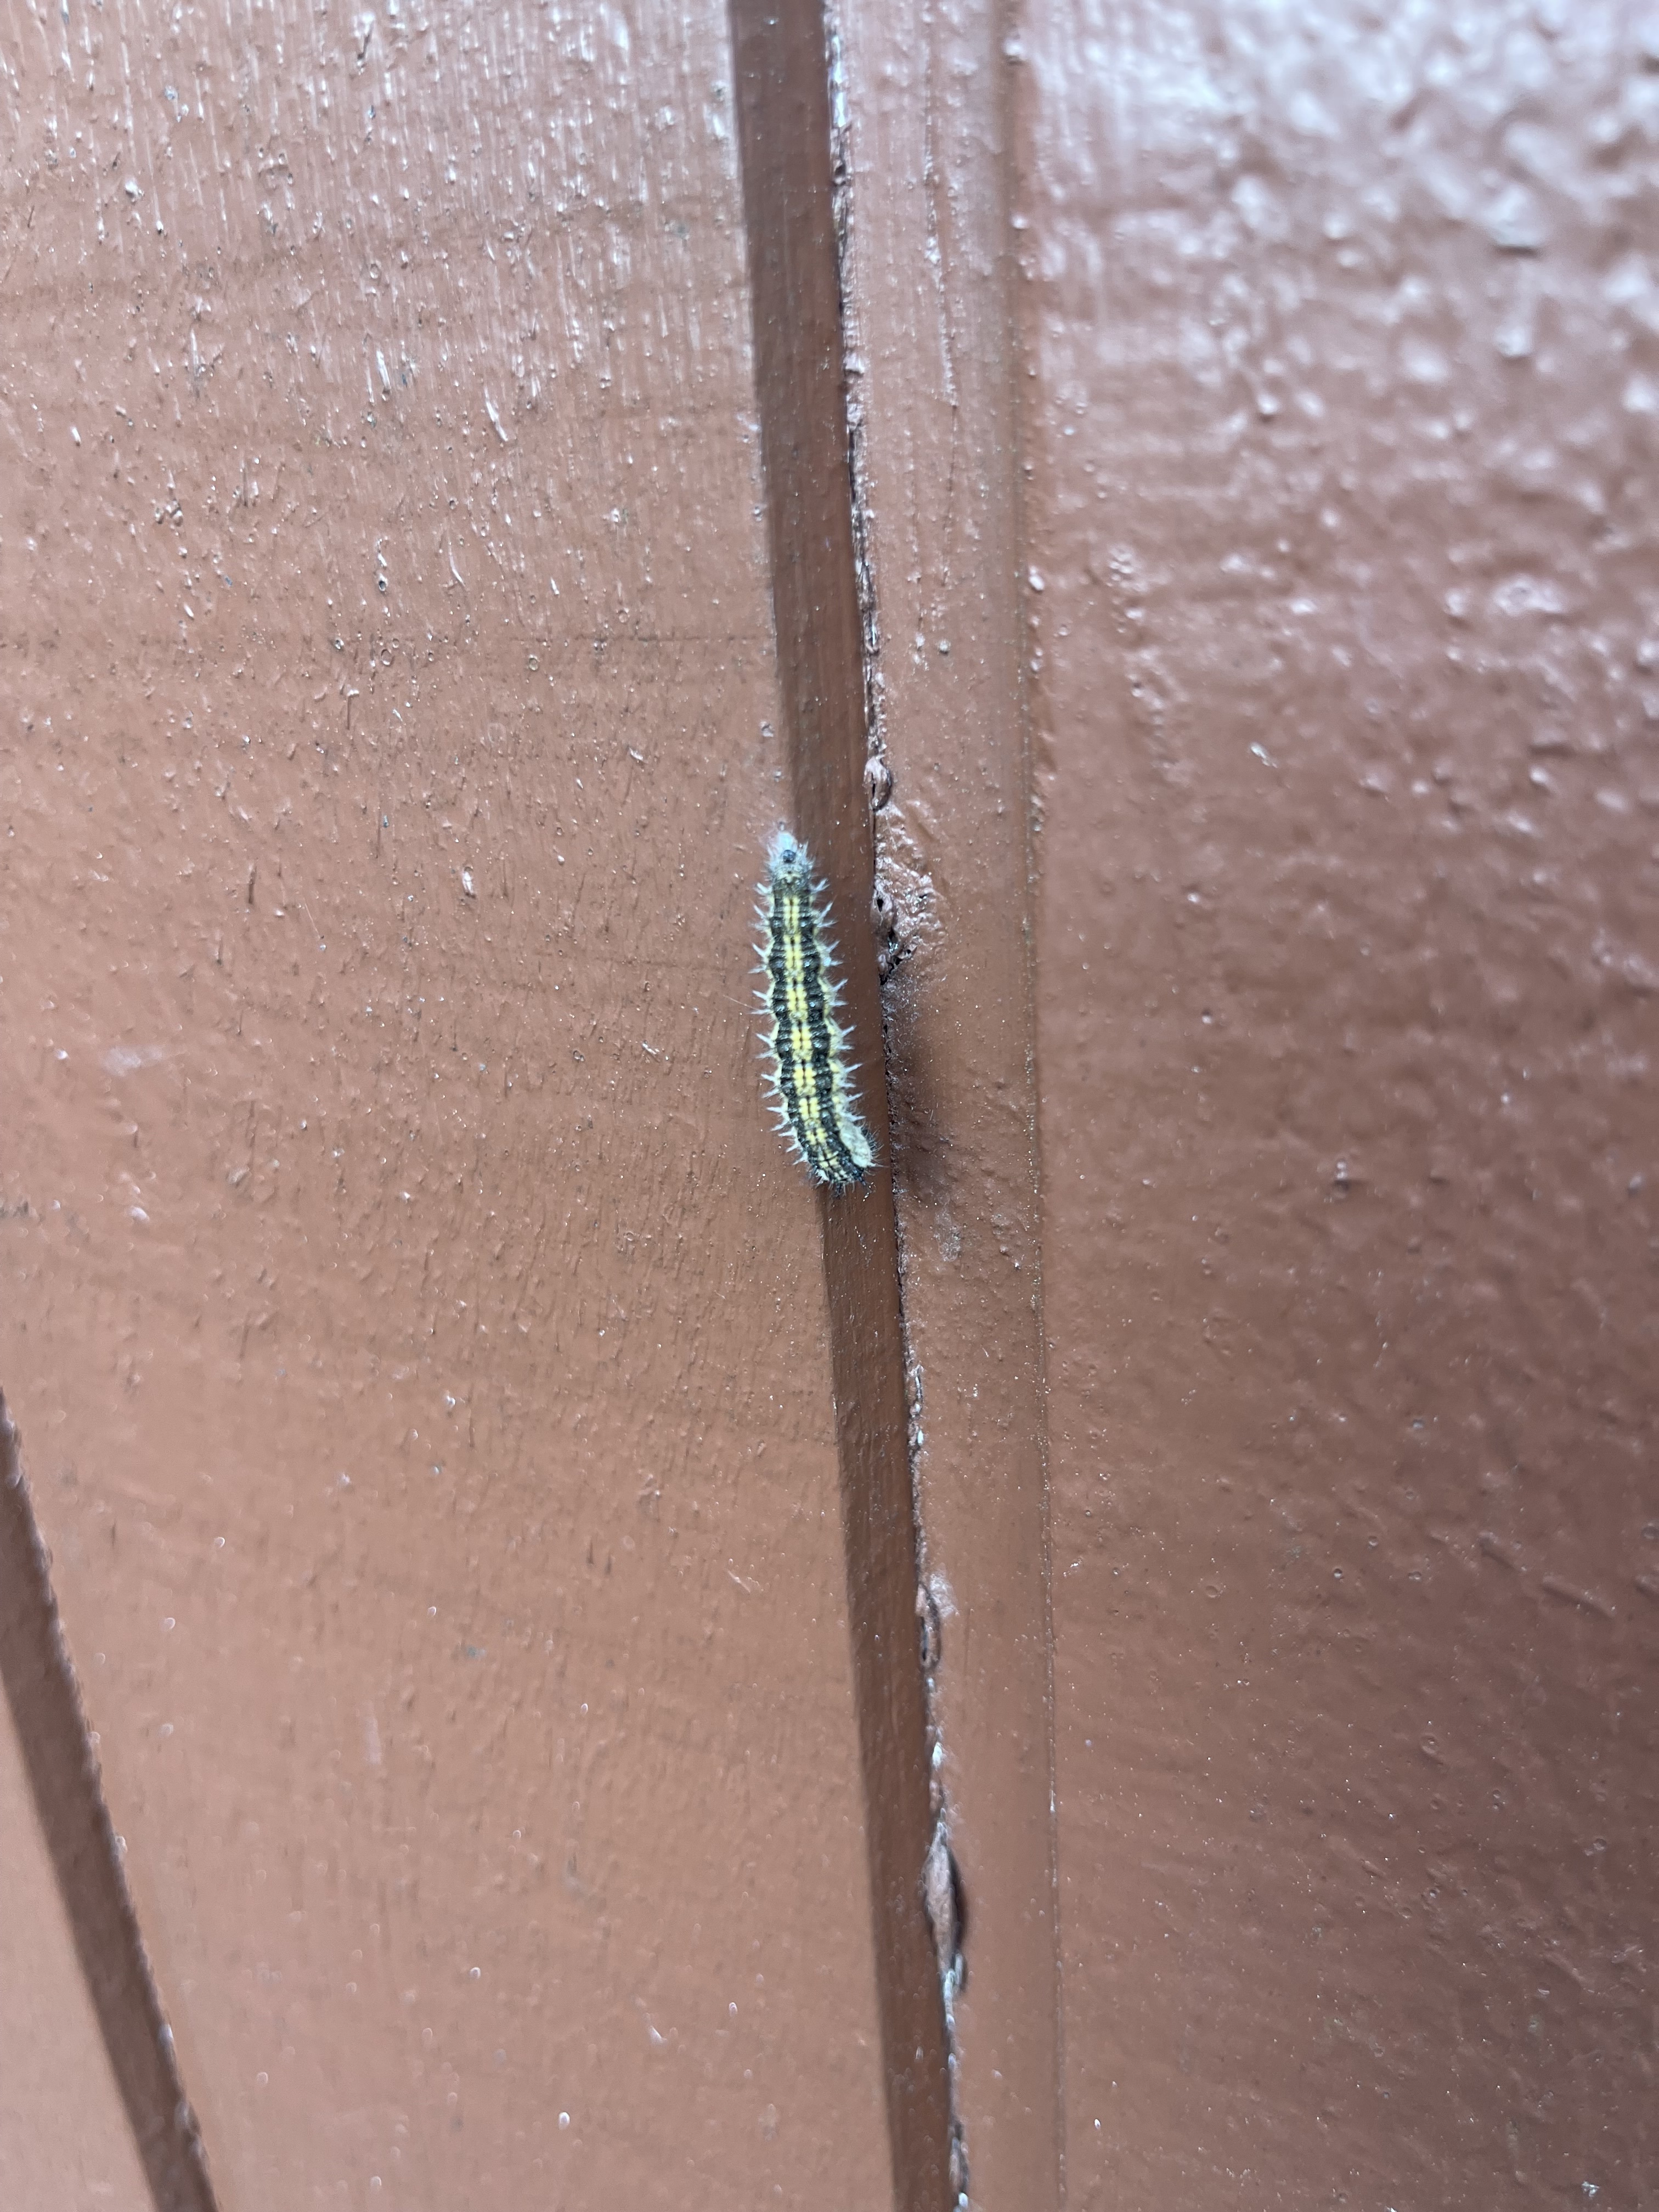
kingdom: Animalia
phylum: Arthropoda
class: Insecta
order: Lepidoptera
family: Crambidae
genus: Cydalima
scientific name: Cydalima perspectalis
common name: Box tree moth
